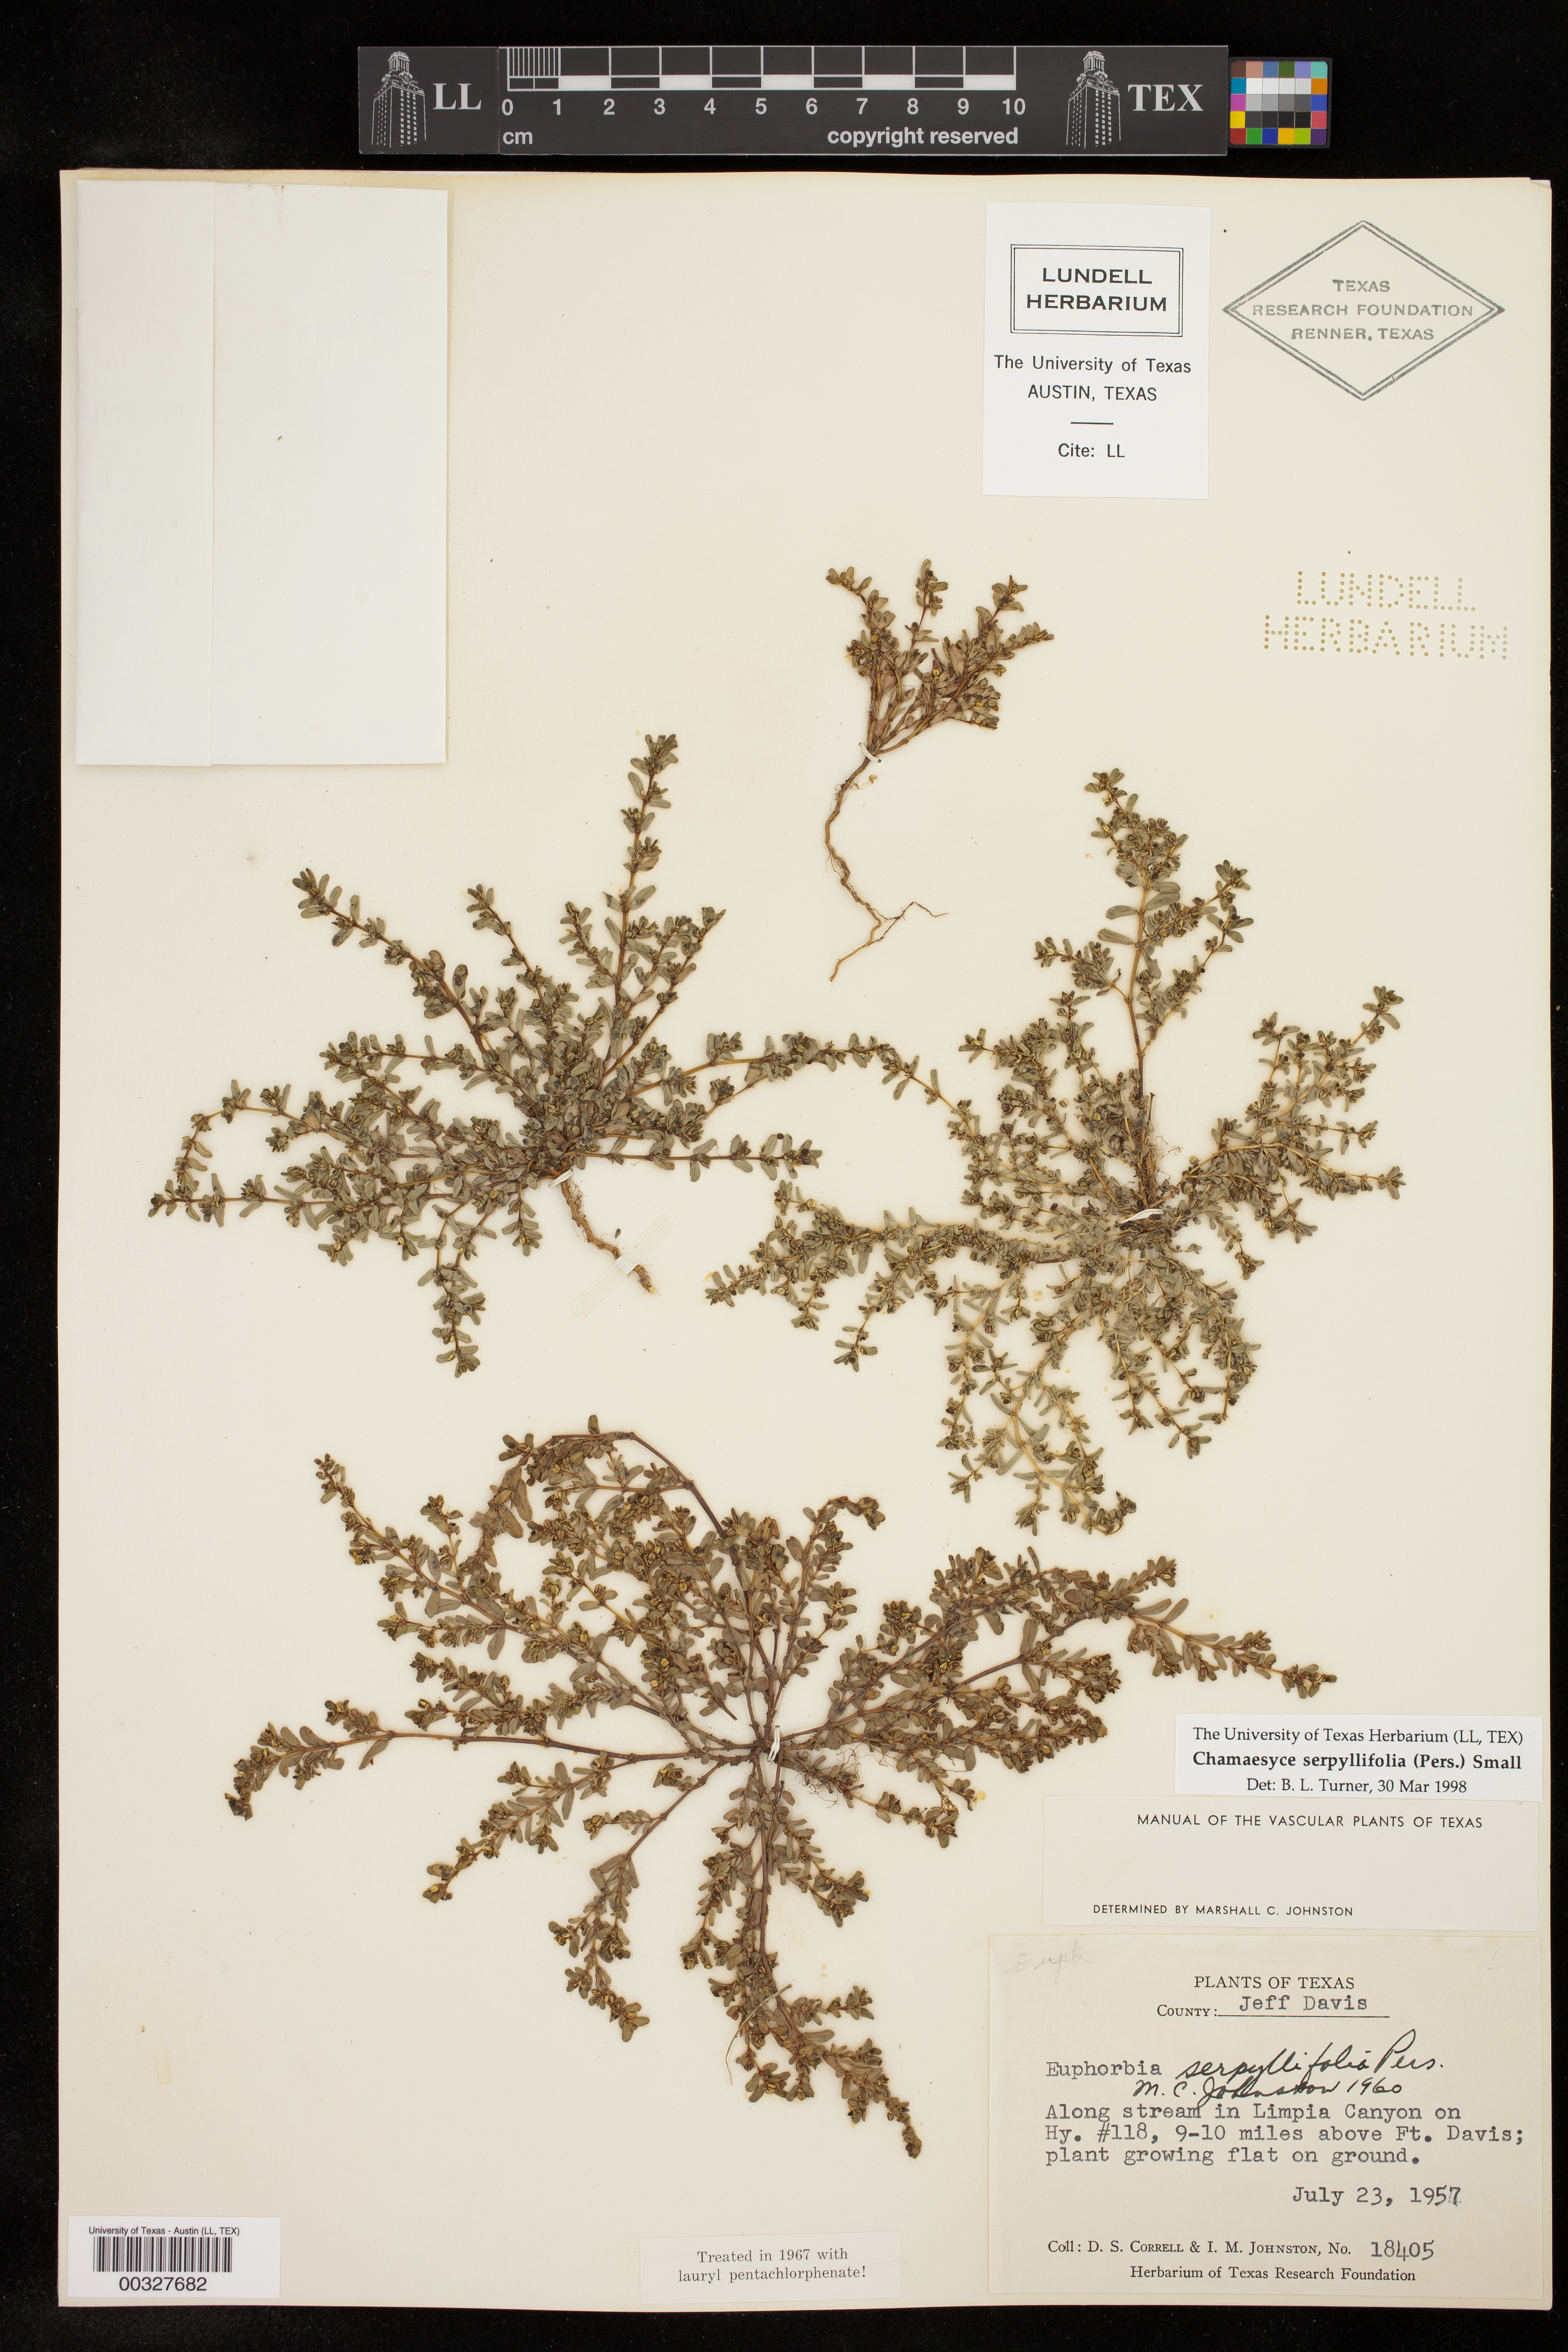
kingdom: Plantae
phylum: Tracheophyta
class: Magnoliopsida
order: Malpighiales
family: Euphorbiaceae
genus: Euphorbia
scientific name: Euphorbia serpillifolia
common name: Thyme-leaf spurge
